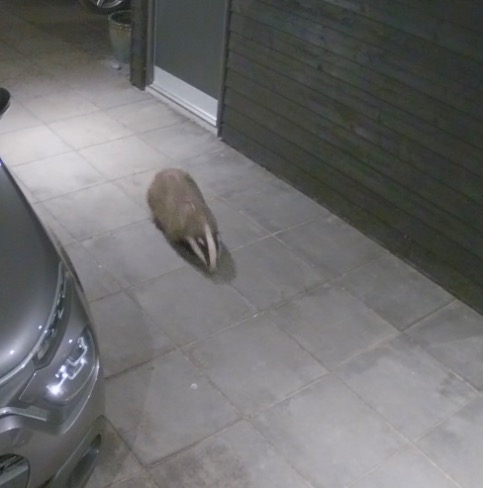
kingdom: Animalia
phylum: Chordata
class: Mammalia
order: Carnivora
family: Mustelidae
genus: Meles
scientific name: Meles meles
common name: Grævling
